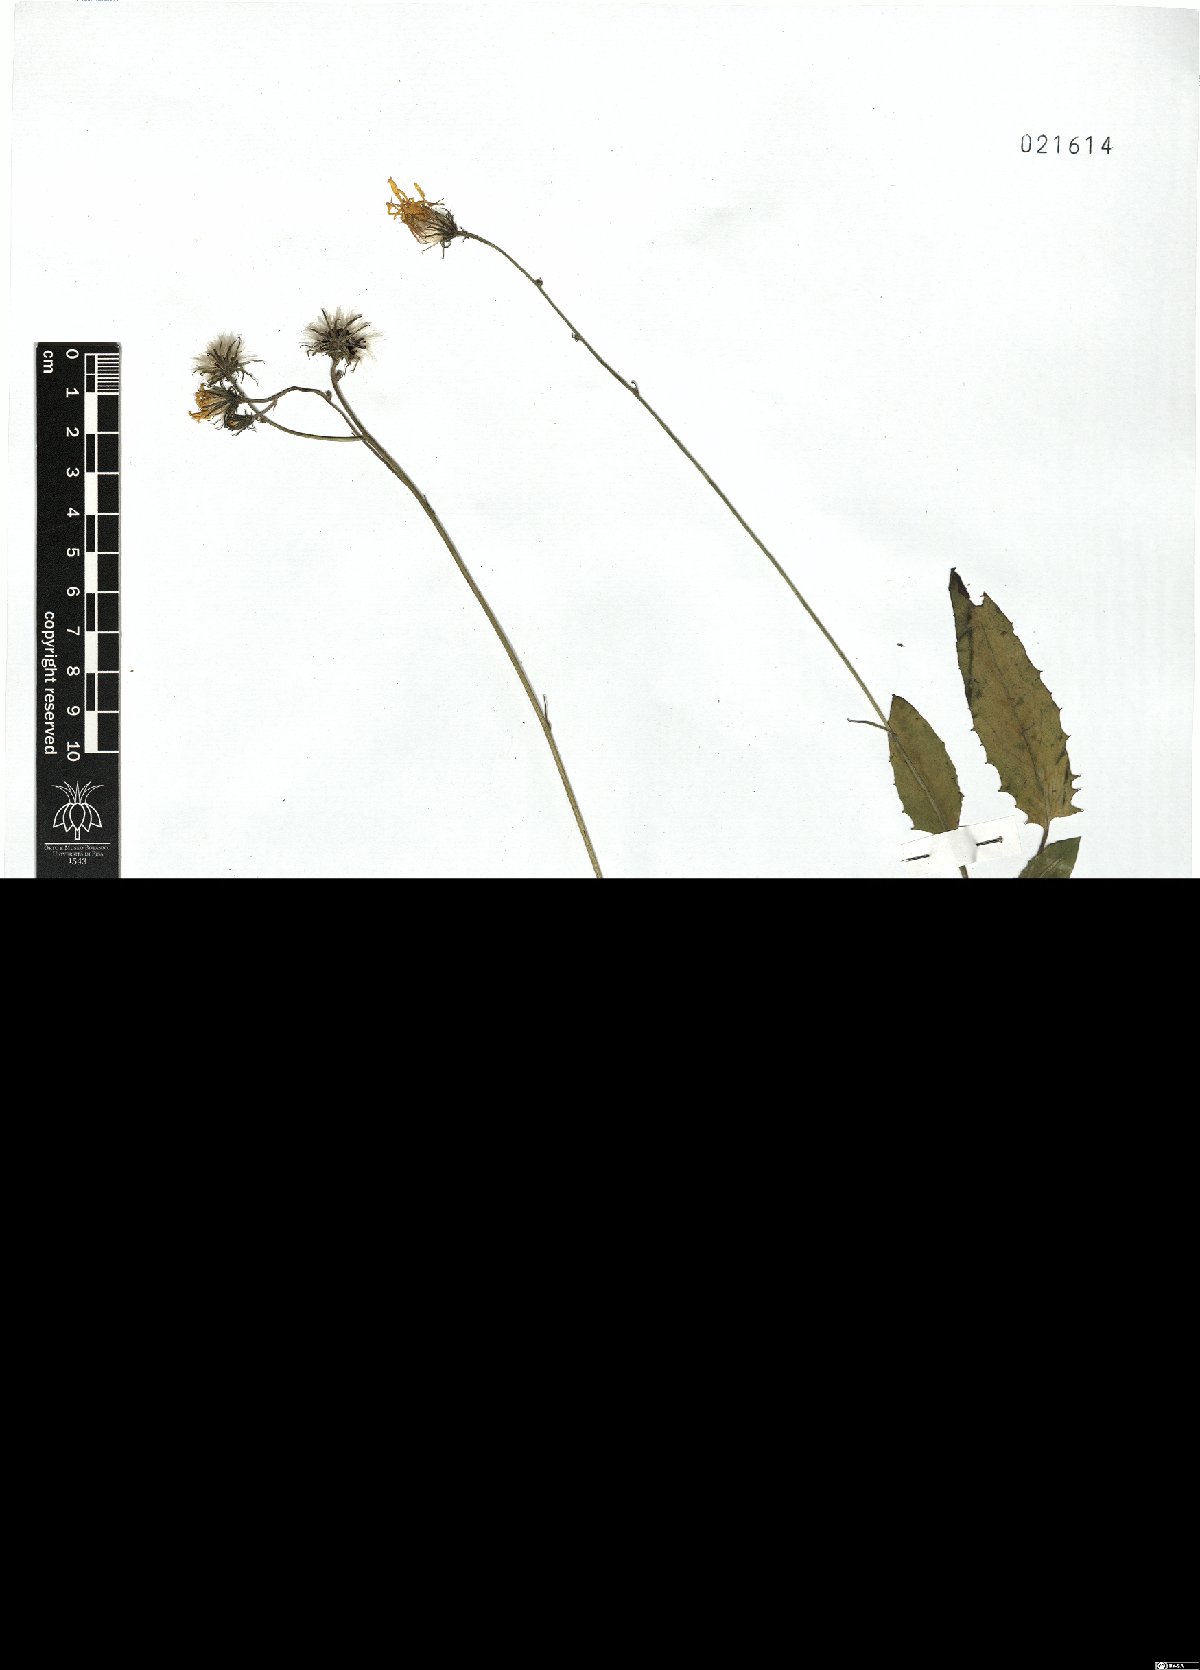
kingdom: Plantae
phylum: Tracheophyta
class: Magnoliopsida
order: Asterales
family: Asteraceae
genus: Hieracium
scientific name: Hieracium tenuiflorum
